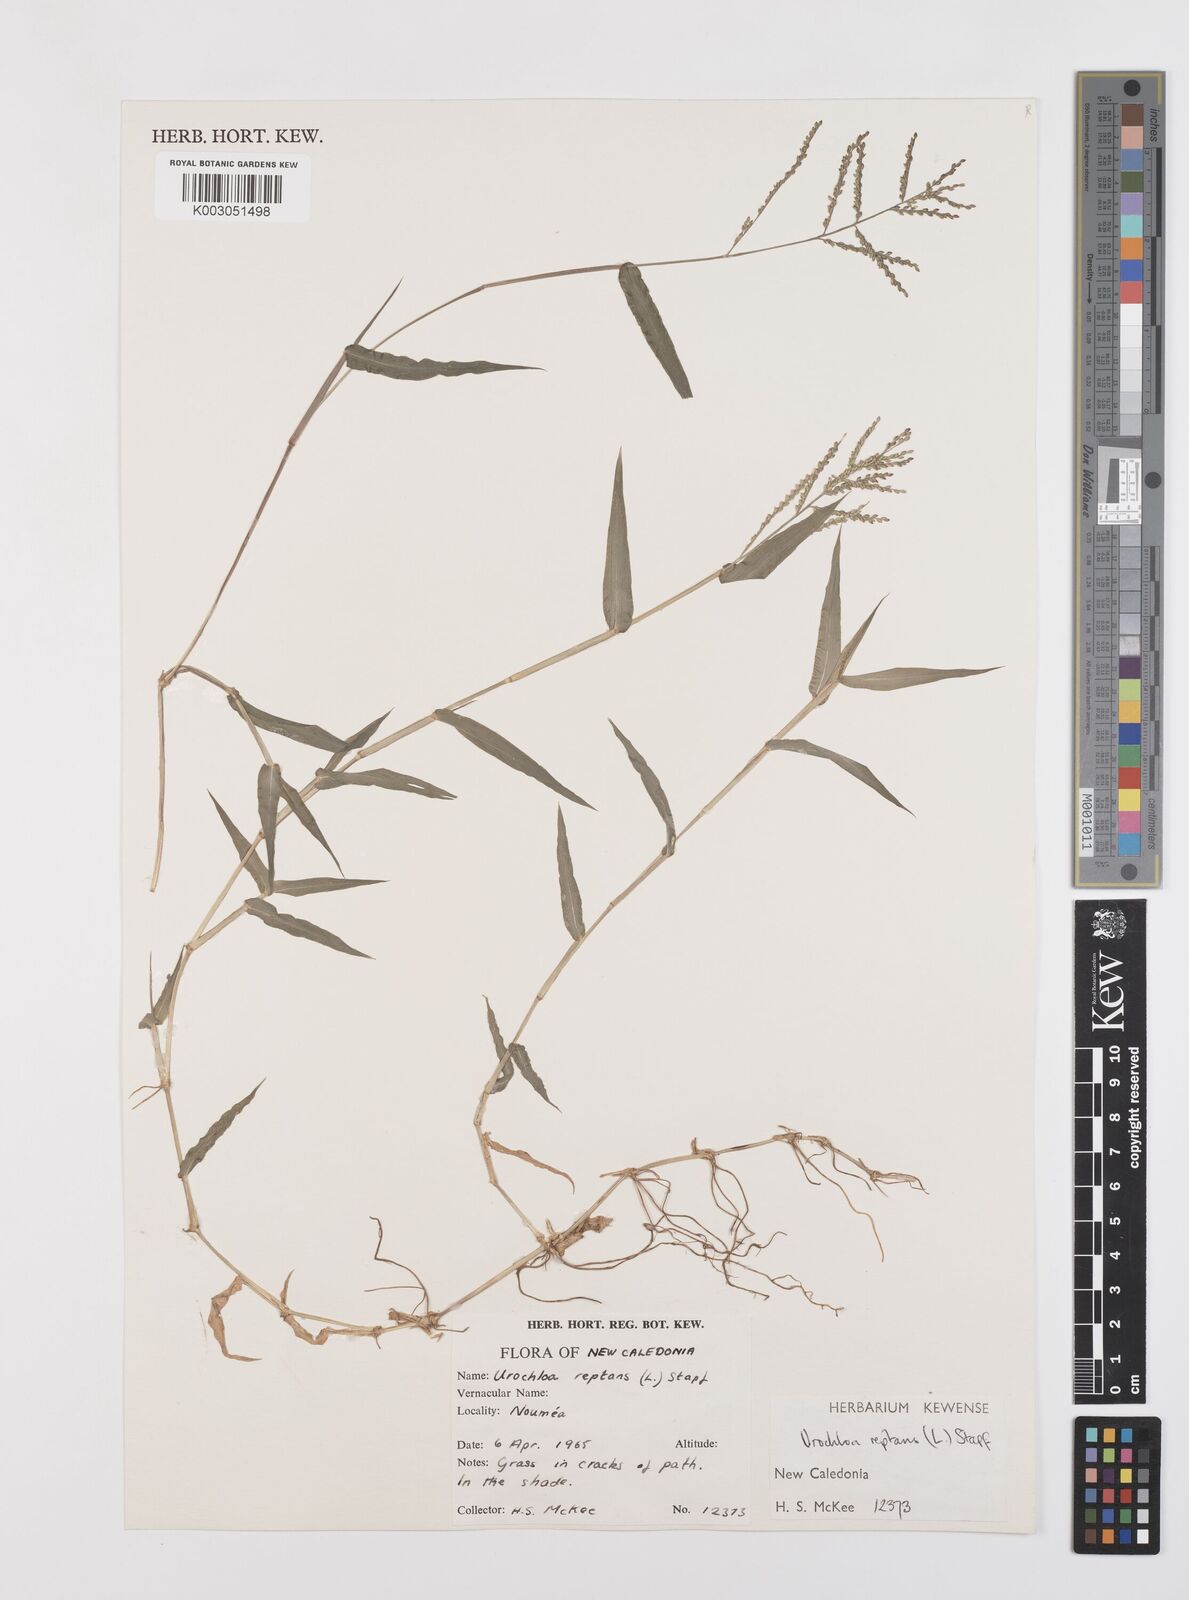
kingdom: Plantae
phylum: Tracheophyta
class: Liliopsida
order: Poales
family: Poaceae
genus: Urochloa
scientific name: Urochloa reptans
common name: Sprawling signalgrass
